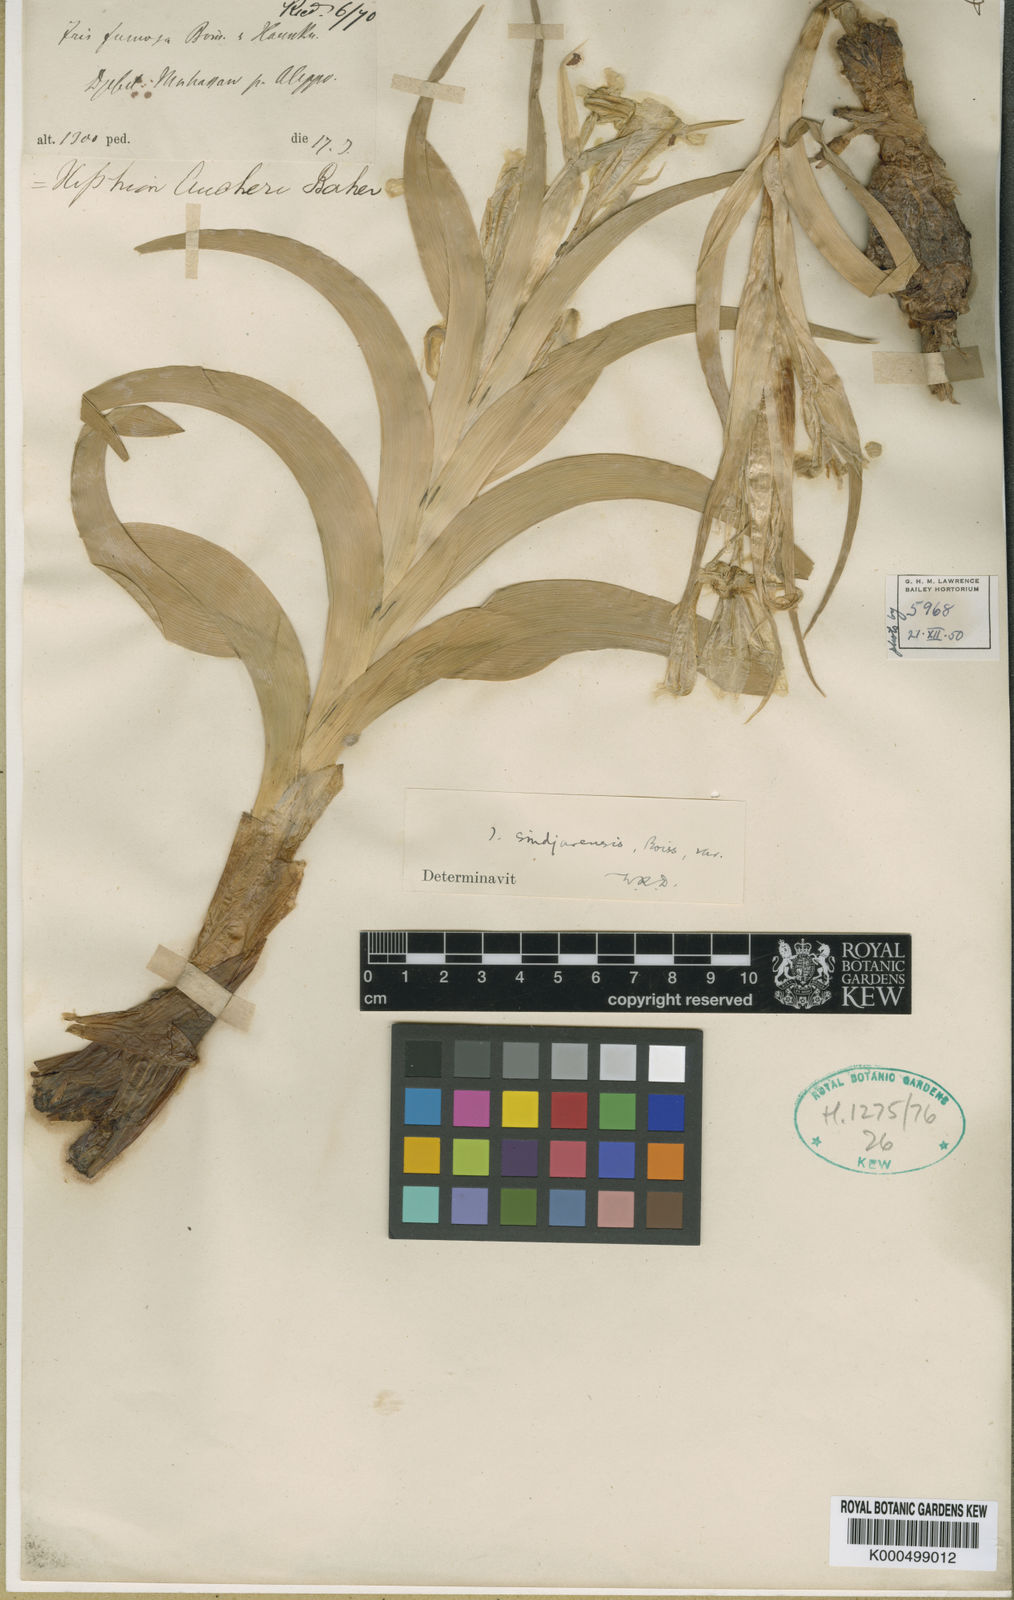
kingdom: Plantae
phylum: Tracheophyta
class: Liliopsida
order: Asparagales
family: Iridaceae
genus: Iris
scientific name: Iris aucheri
